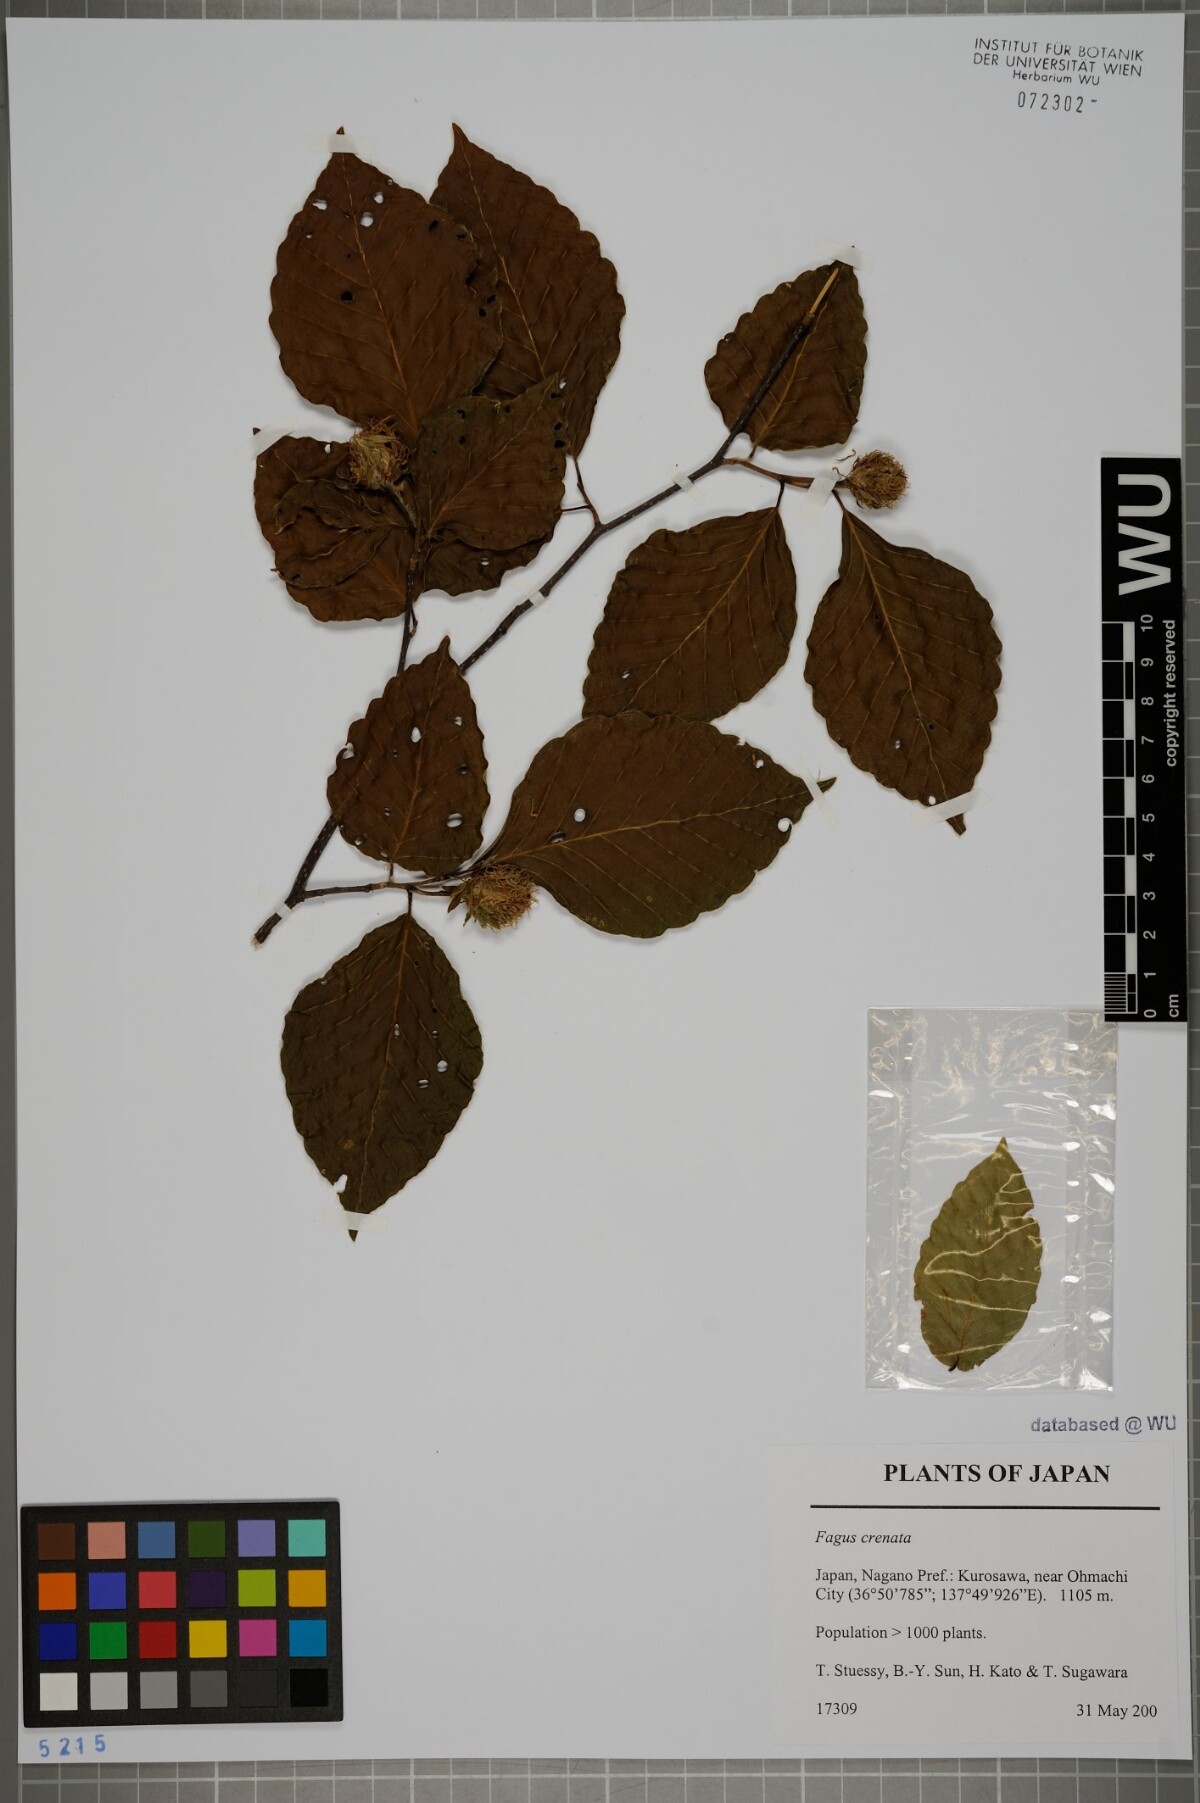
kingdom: Plantae
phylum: Tracheophyta
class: Magnoliopsida
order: Fagales
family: Fagaceae
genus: Fagus
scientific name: Fagus crenata
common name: Japanese beech
